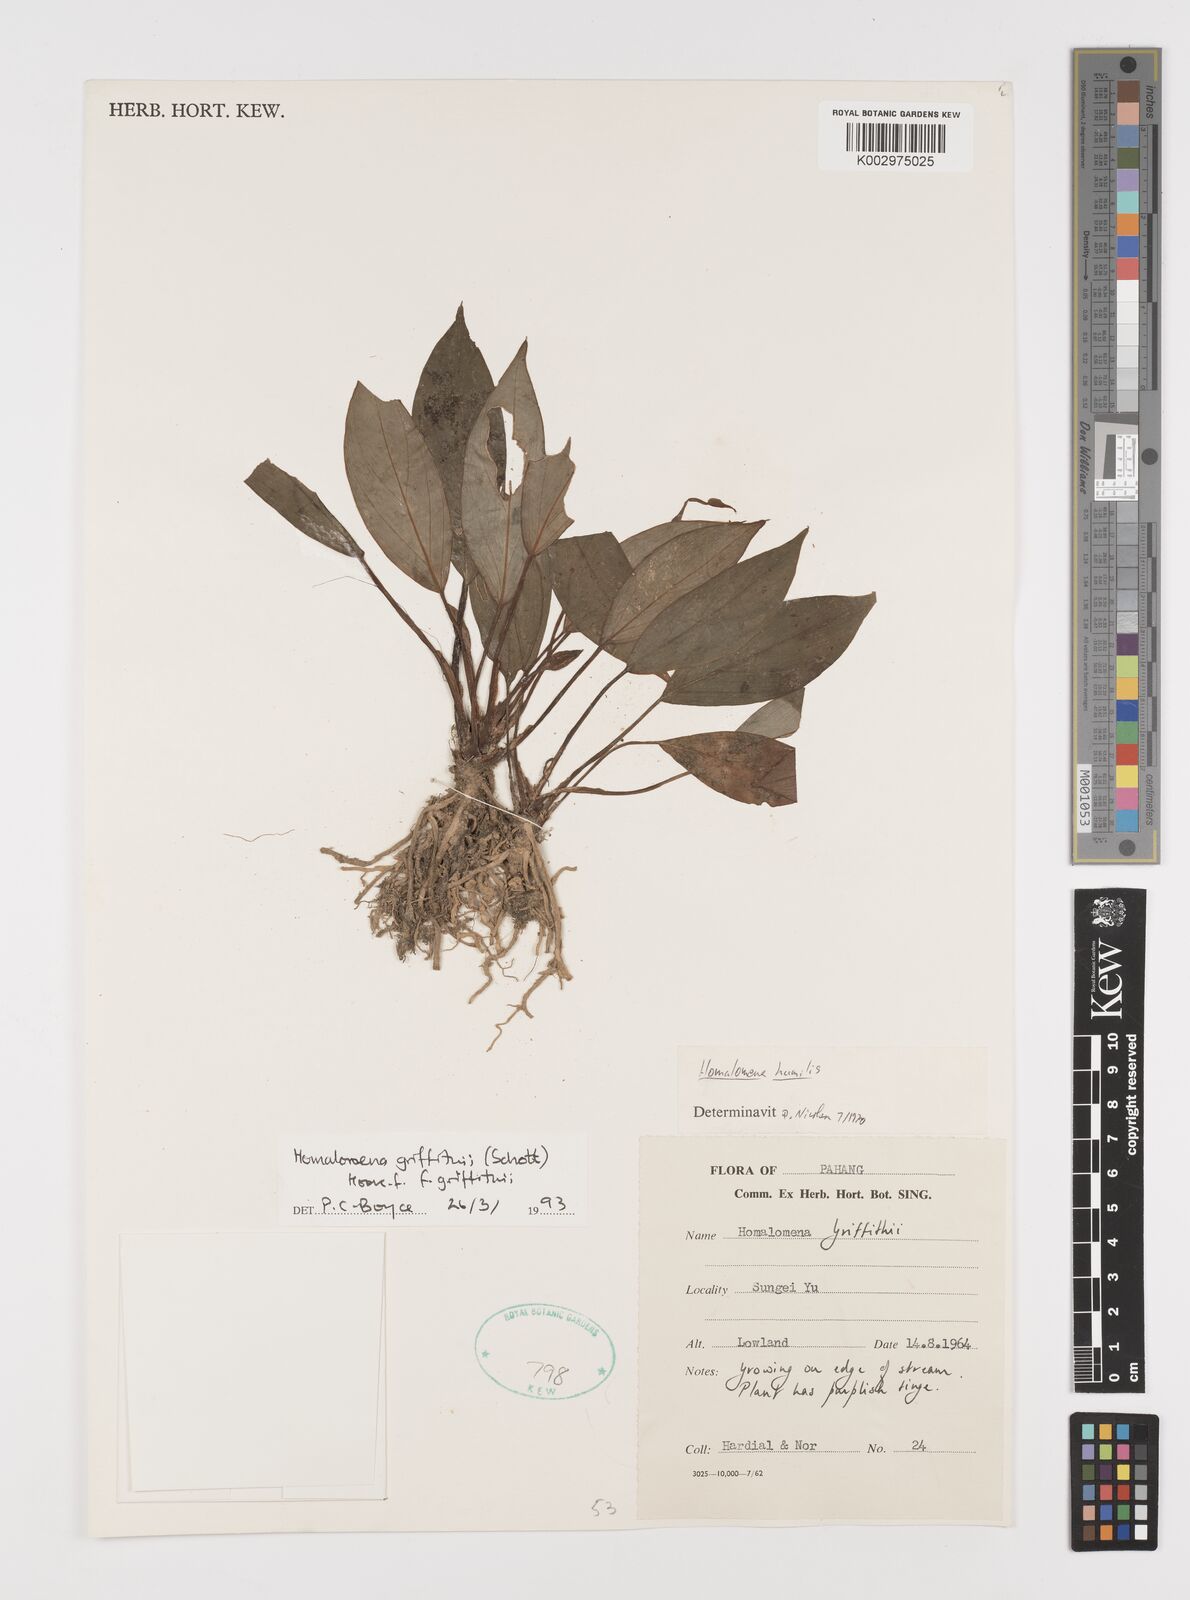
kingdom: Plantae
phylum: Tracheophyta
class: Liliopsida
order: Alismatales
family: Araceae
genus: Homalomena
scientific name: Homalomena griffithii
